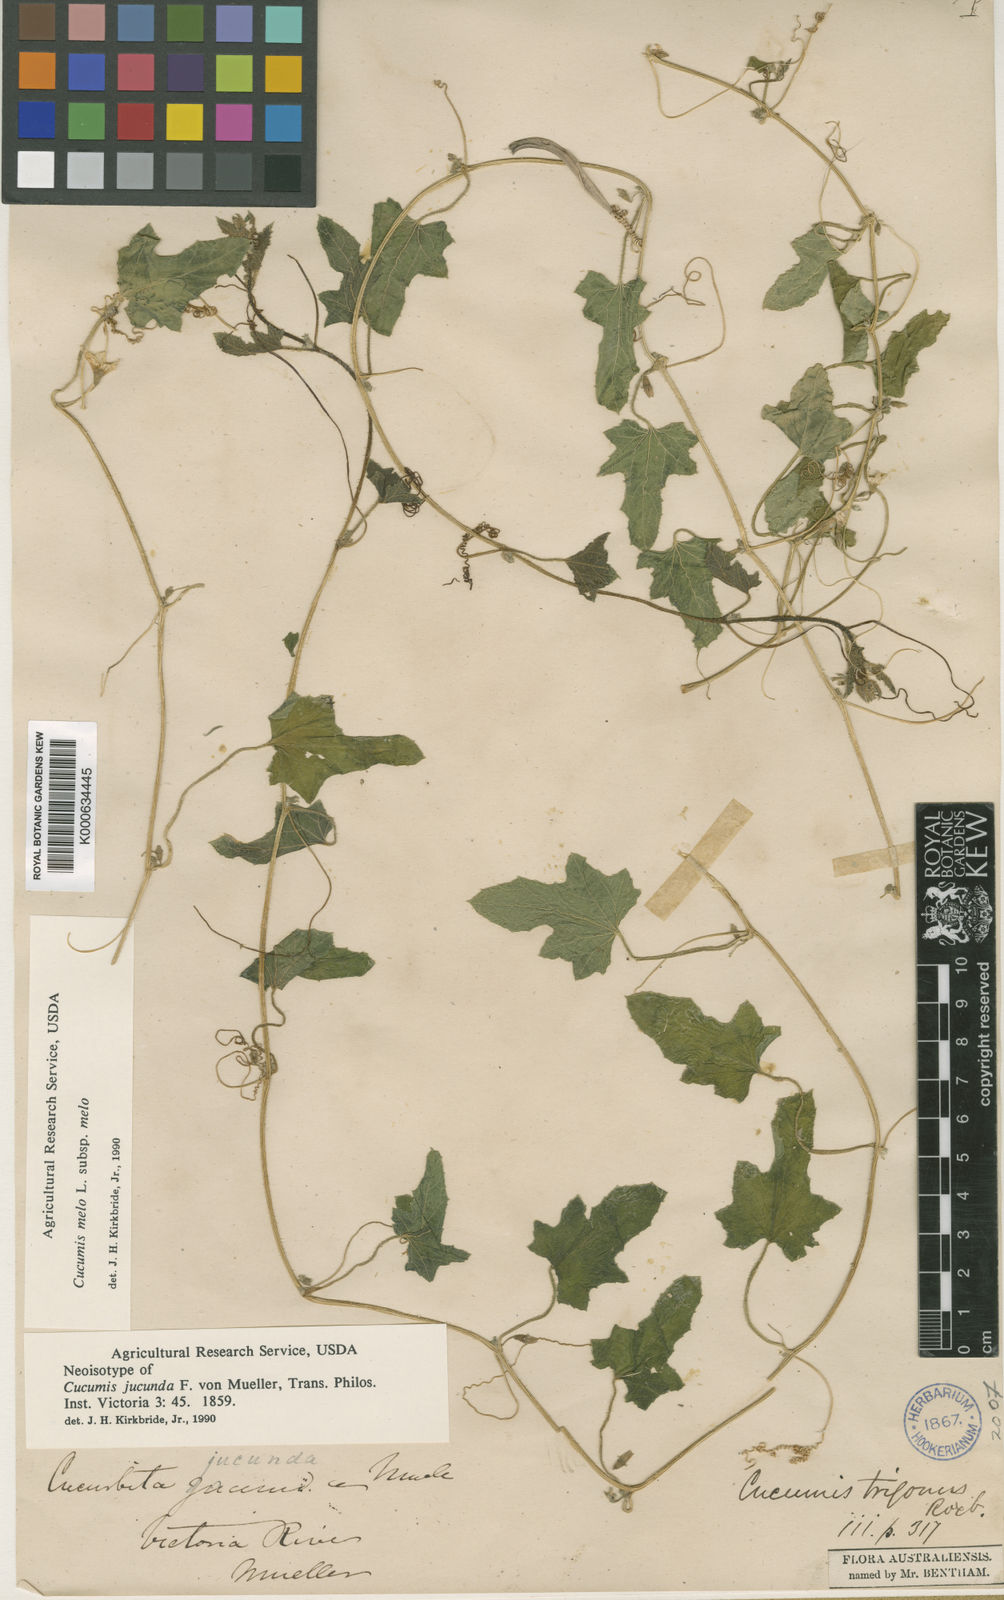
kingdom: Plantae
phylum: Tracheophyta
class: Magnoliopsida
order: Cucurbitales
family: Cucurbitaceae
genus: Cucumis
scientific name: Cucumis
